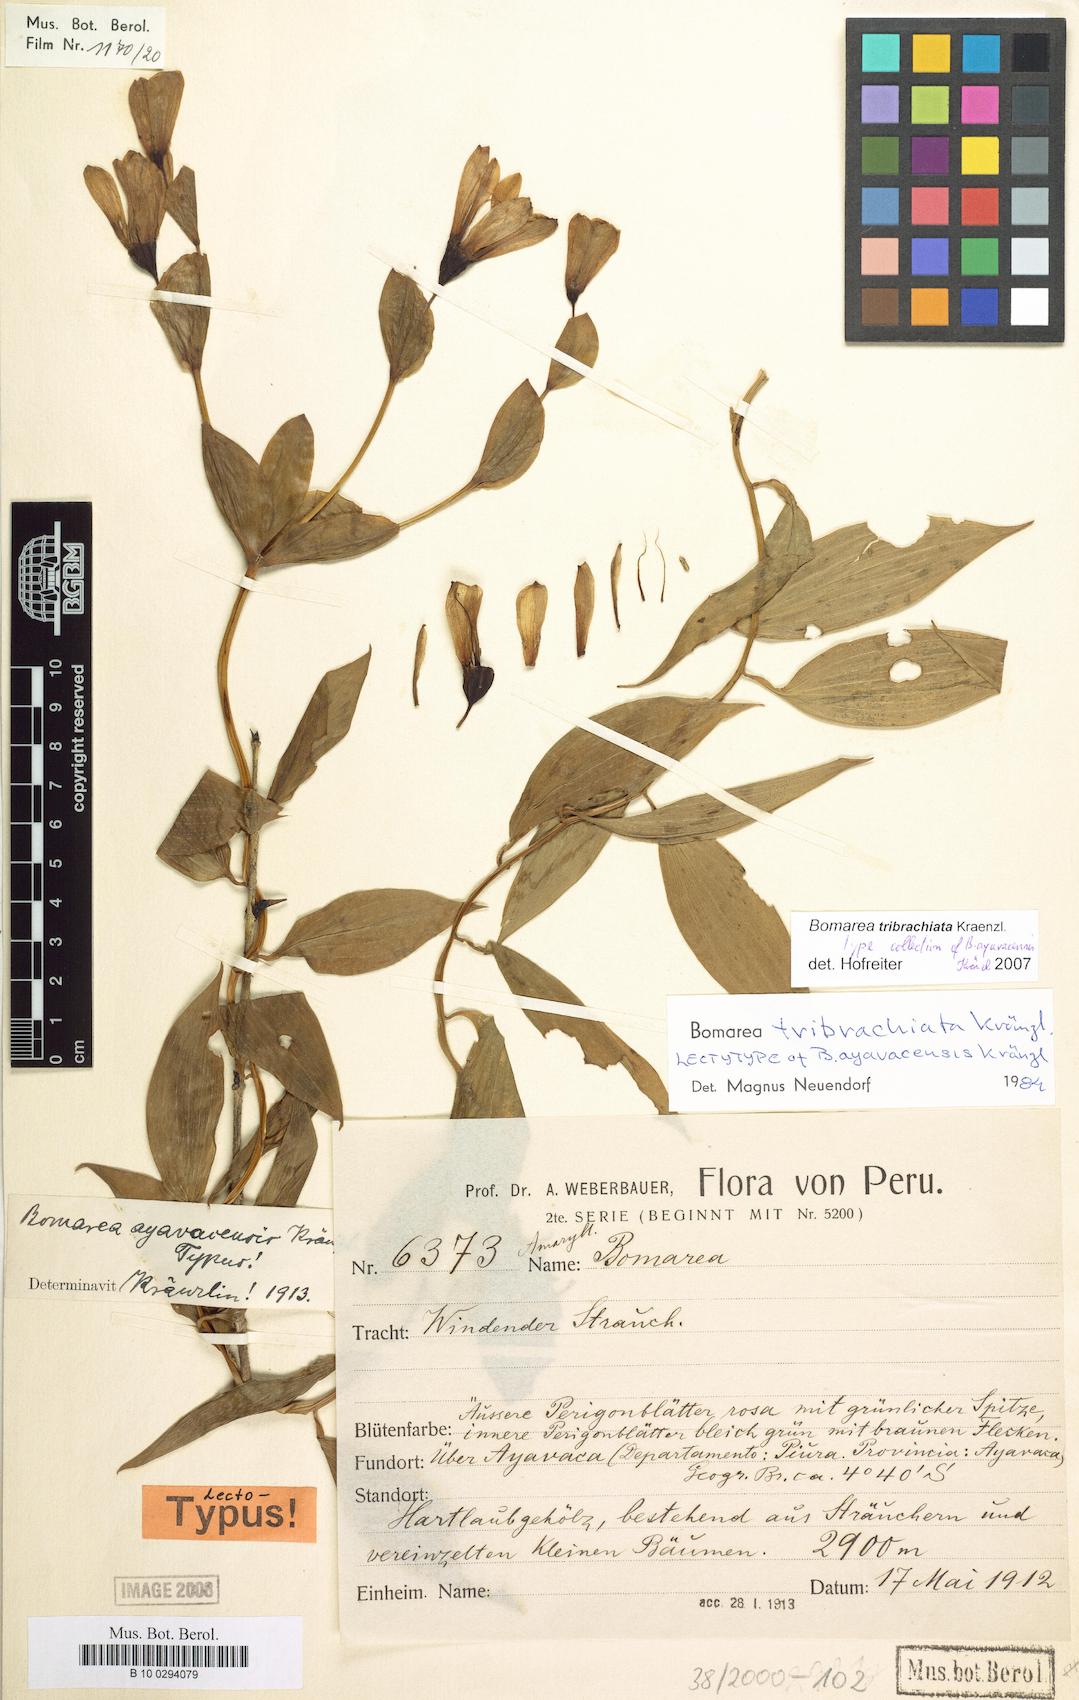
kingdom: Plantae
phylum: Tracheophyta
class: Liliopsida
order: Liliales
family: Alstroemeriaceae
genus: Bomarea
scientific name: Bomarea tribrachiata
